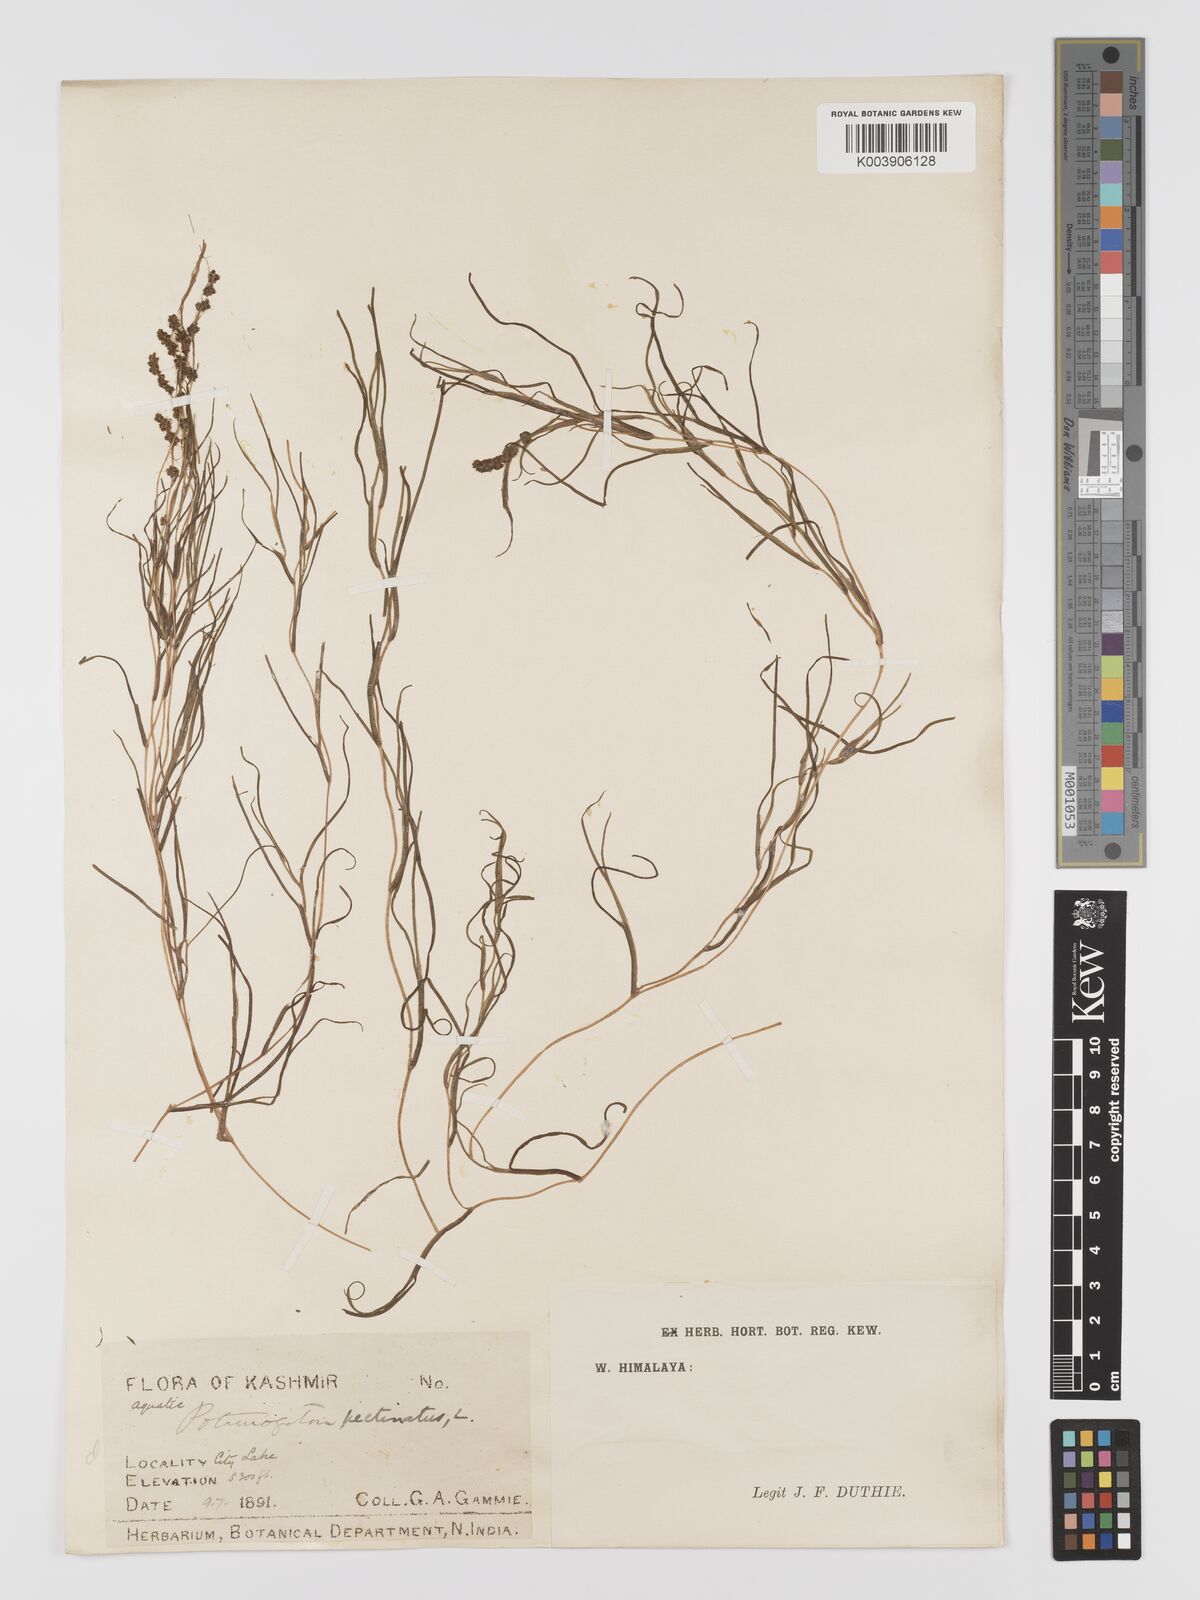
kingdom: Plantae
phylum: Tracheophyta
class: Liliopsida
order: Alismatales
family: Potamogetonaceae
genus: Stuckenia
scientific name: Stuckenia pectinata
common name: Sago pondweed
